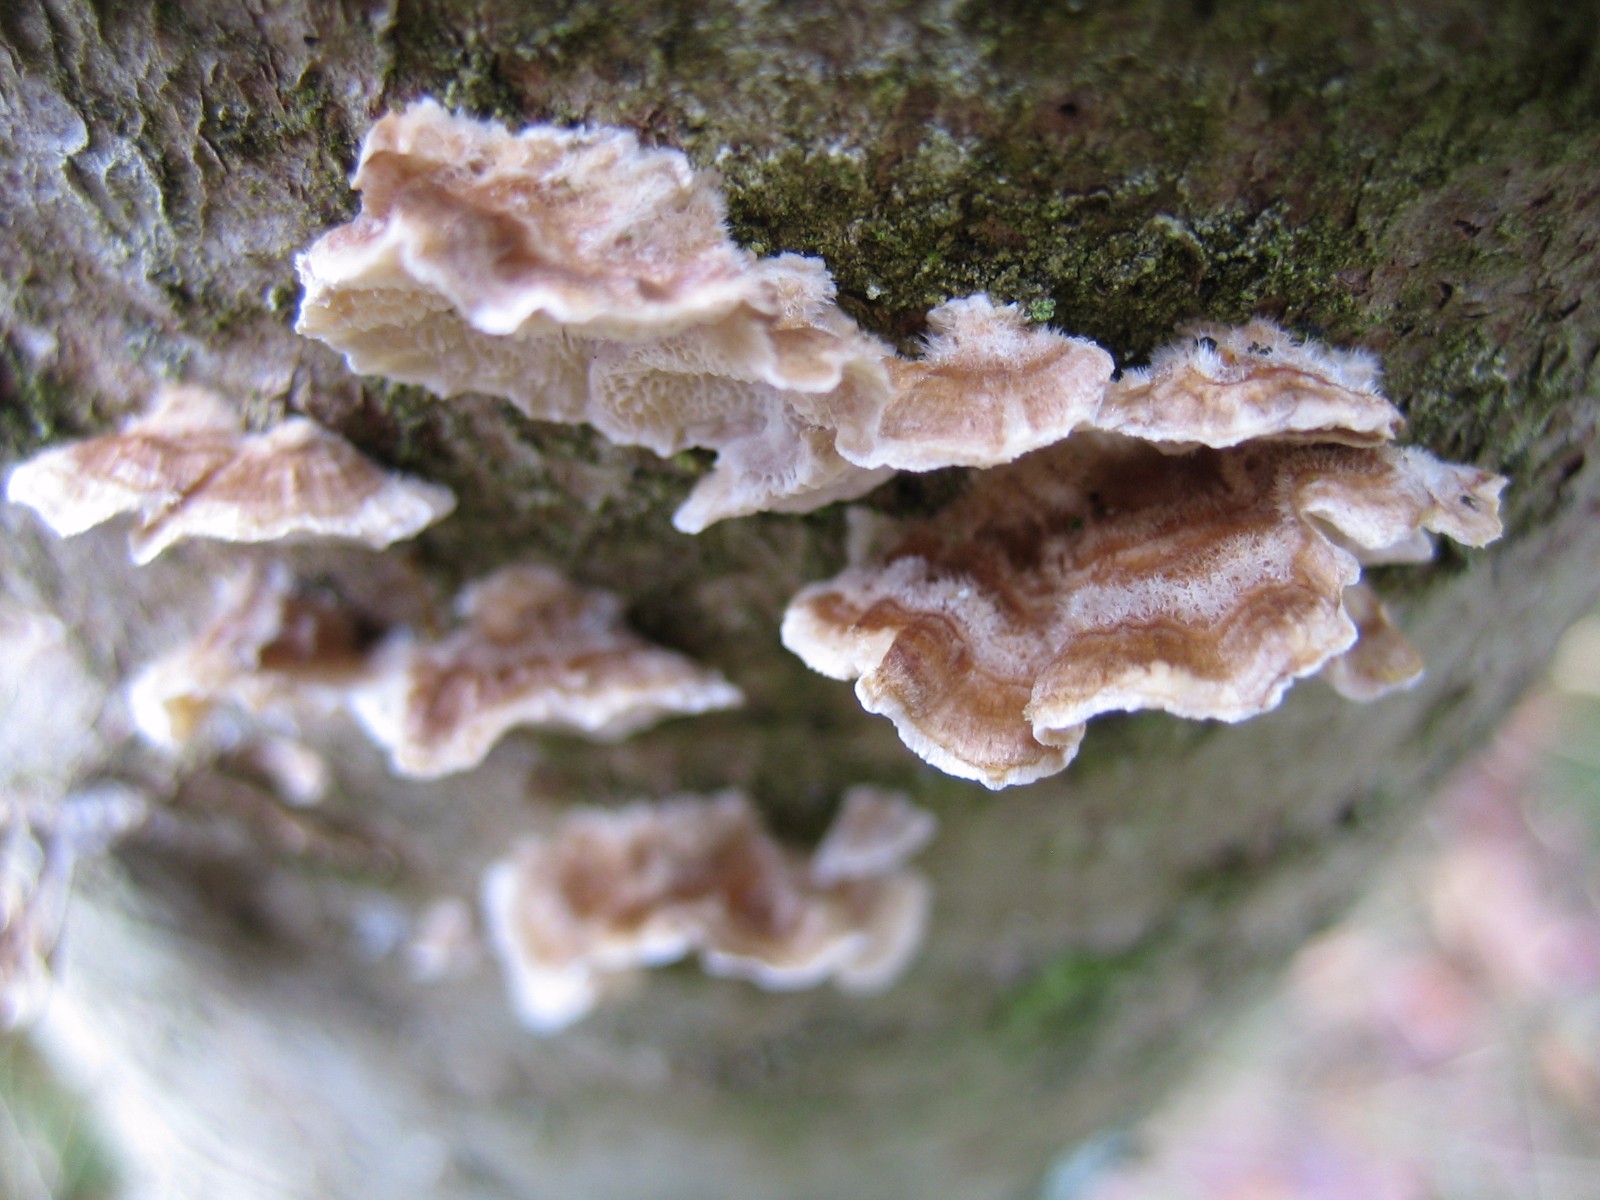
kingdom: Fungi
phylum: Basidiomycota
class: Agaricomycetes
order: Polyporales
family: Polyporaceae
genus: Trametes
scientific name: Trametes
